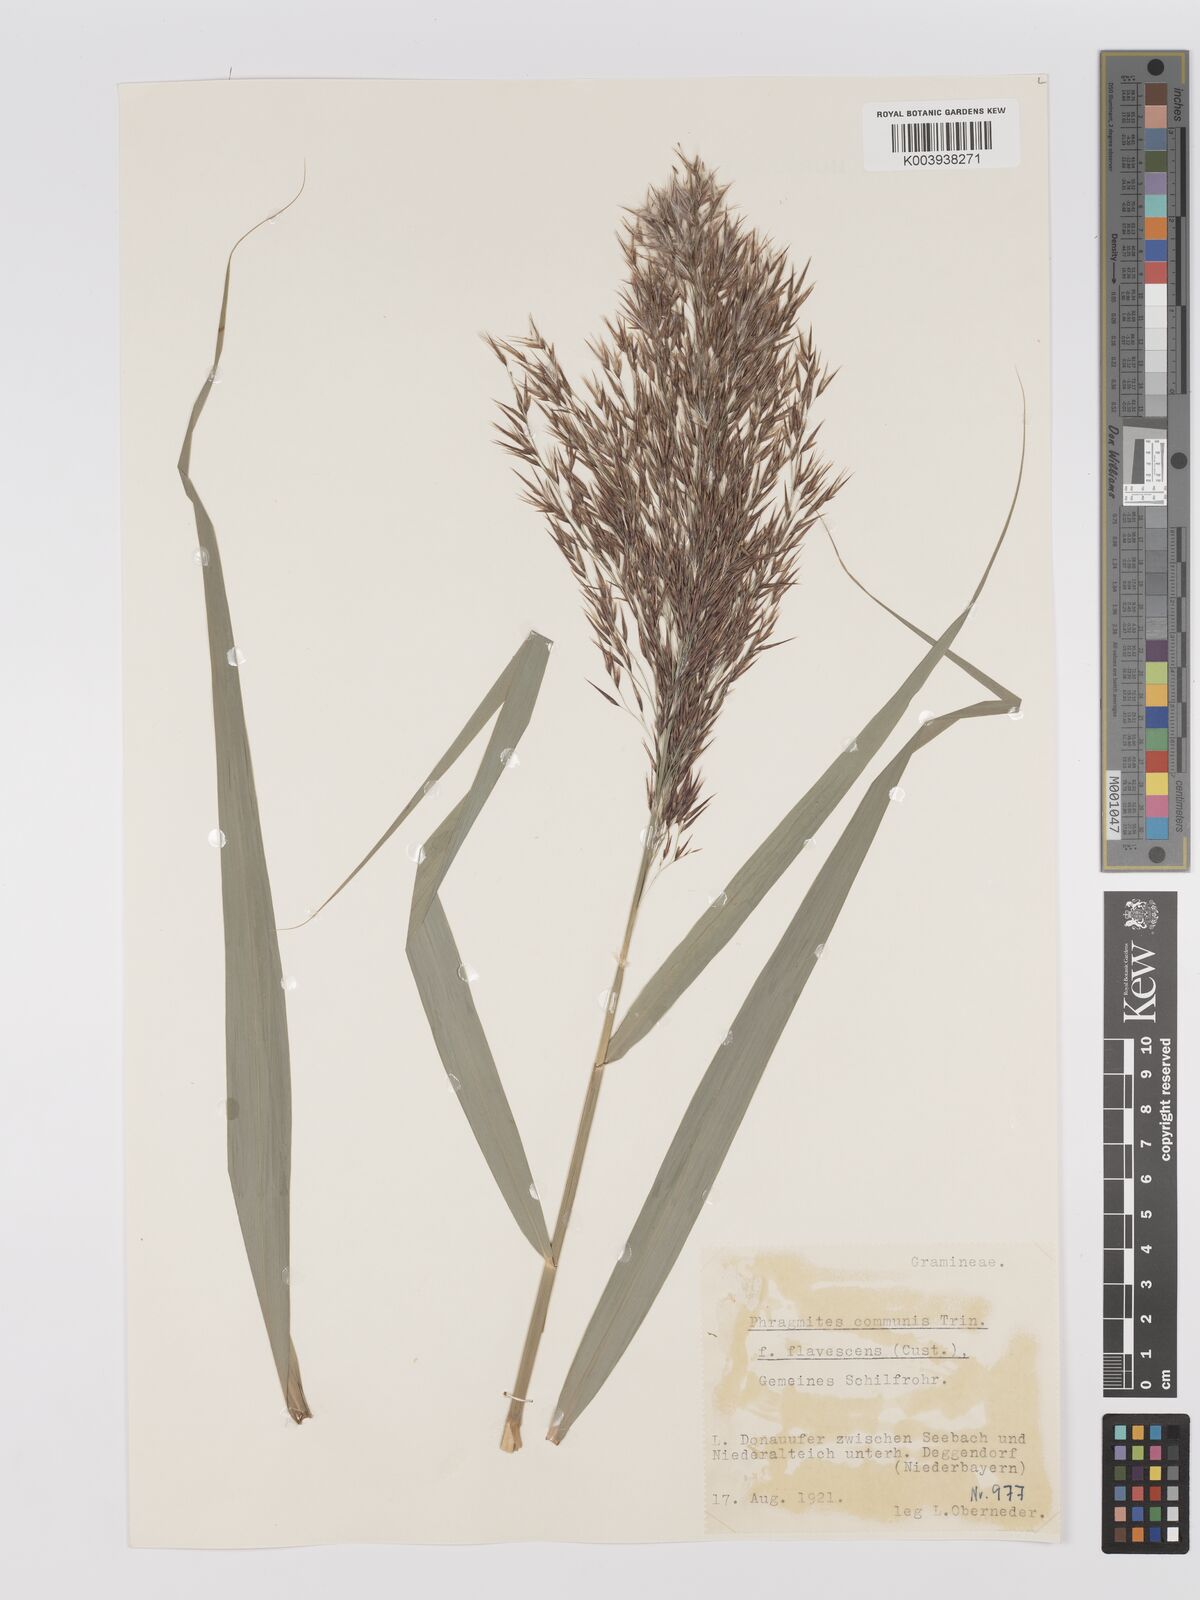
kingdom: Plantae
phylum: Tracheophyta
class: Liliopsida
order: Poales
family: Poaceae
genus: Phragmites
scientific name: Phragmites australis
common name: Common reed
